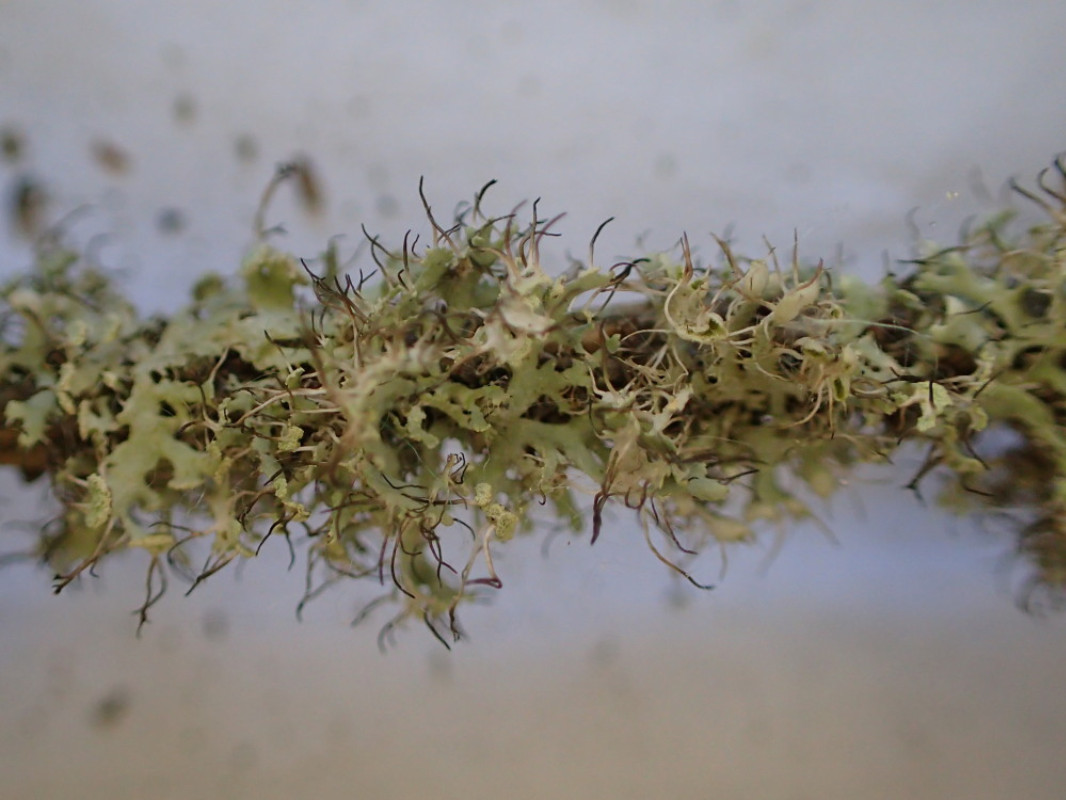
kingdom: Fungi
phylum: Ascomycota
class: Lecanoromycetes
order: Caliciales
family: Physciaceae
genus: Physcia
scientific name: Physcia tenella
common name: spæd rosetlav
